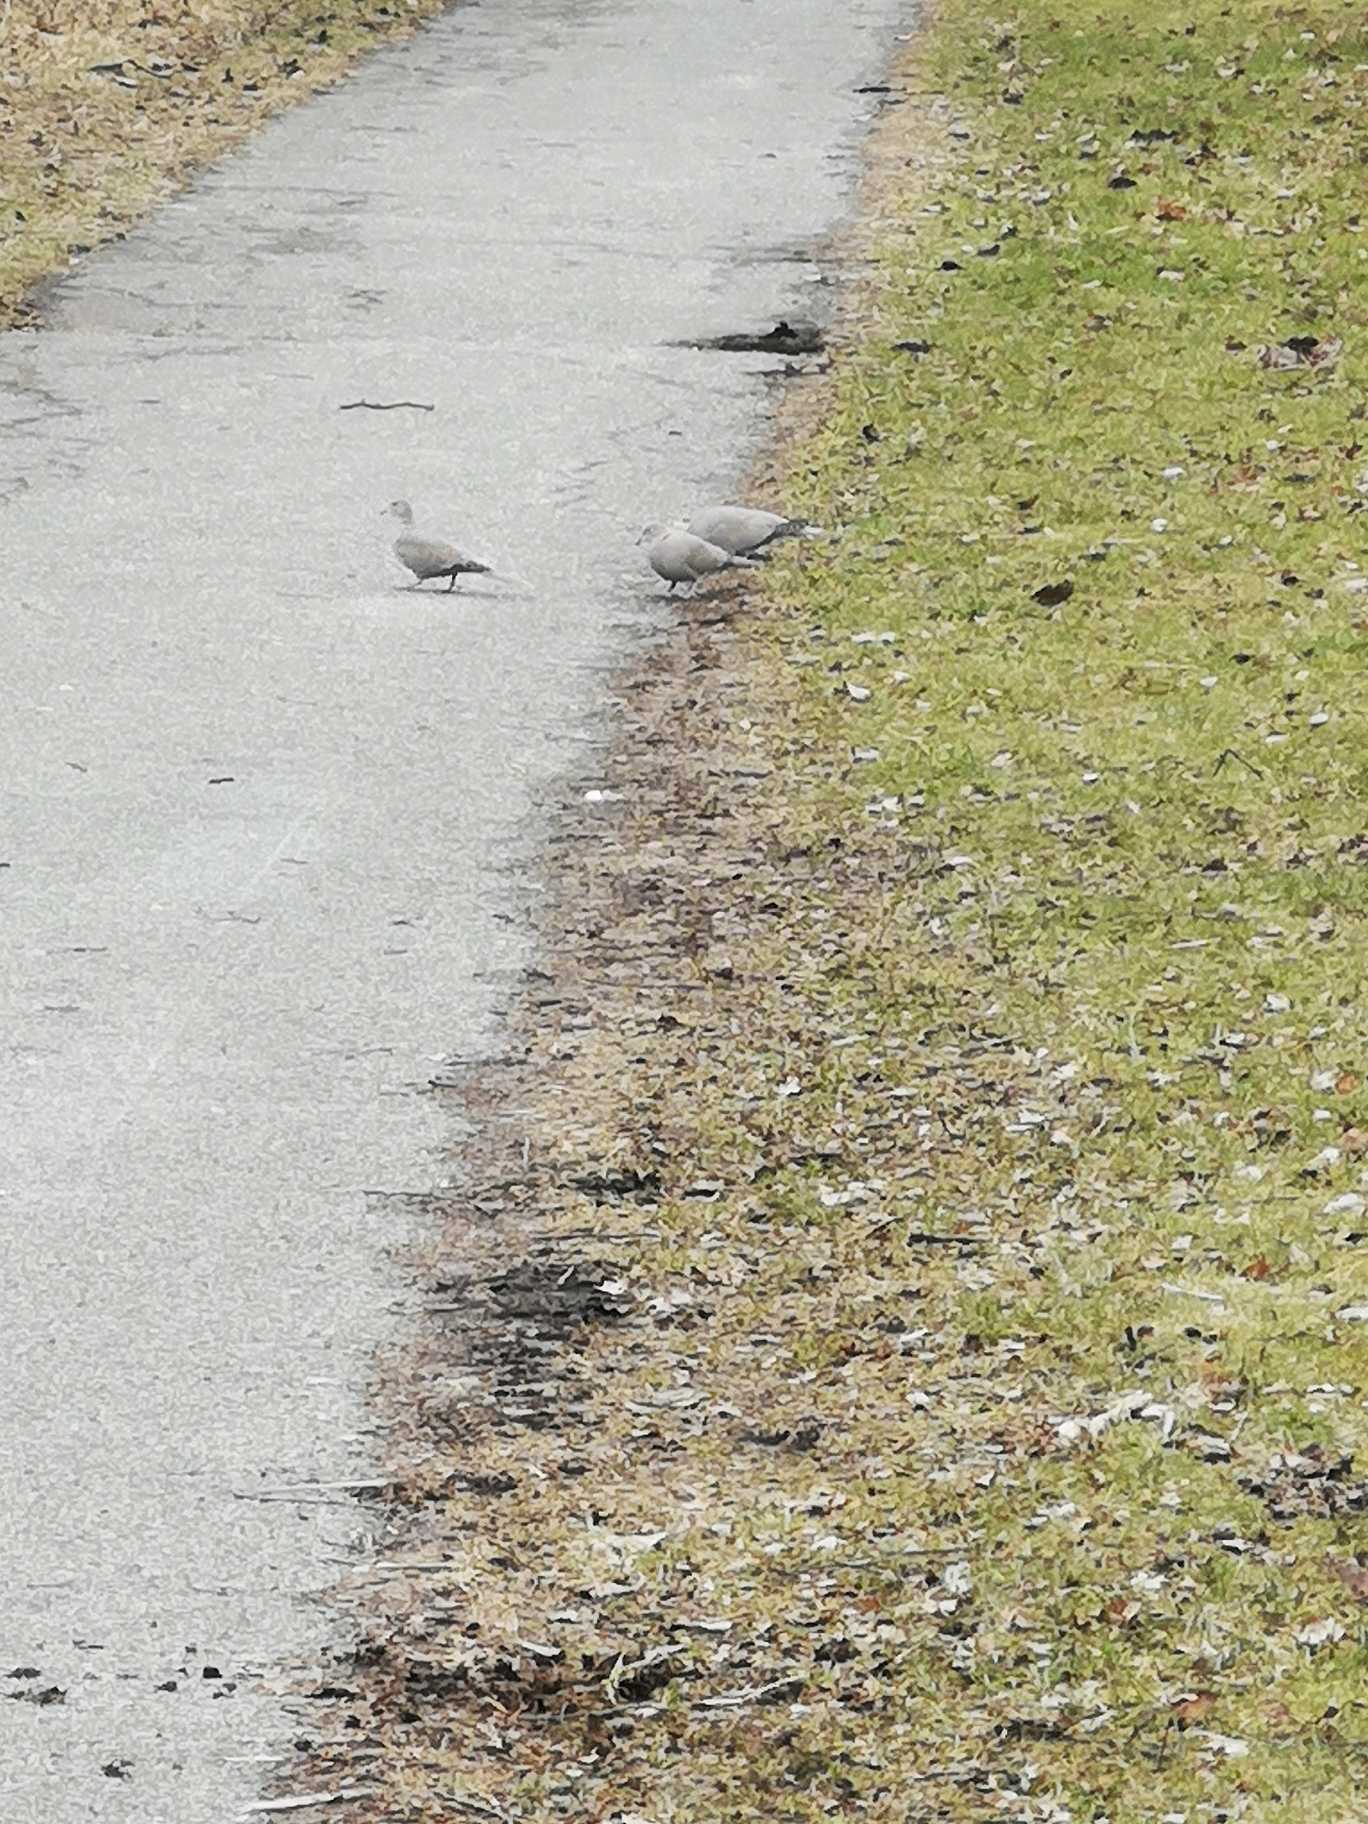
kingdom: Animalia
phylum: Chordata
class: Aves
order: Columbiformes
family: Columbidae
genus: Streptopelia
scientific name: Streptopelia decaocto
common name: Tyrkerdue
